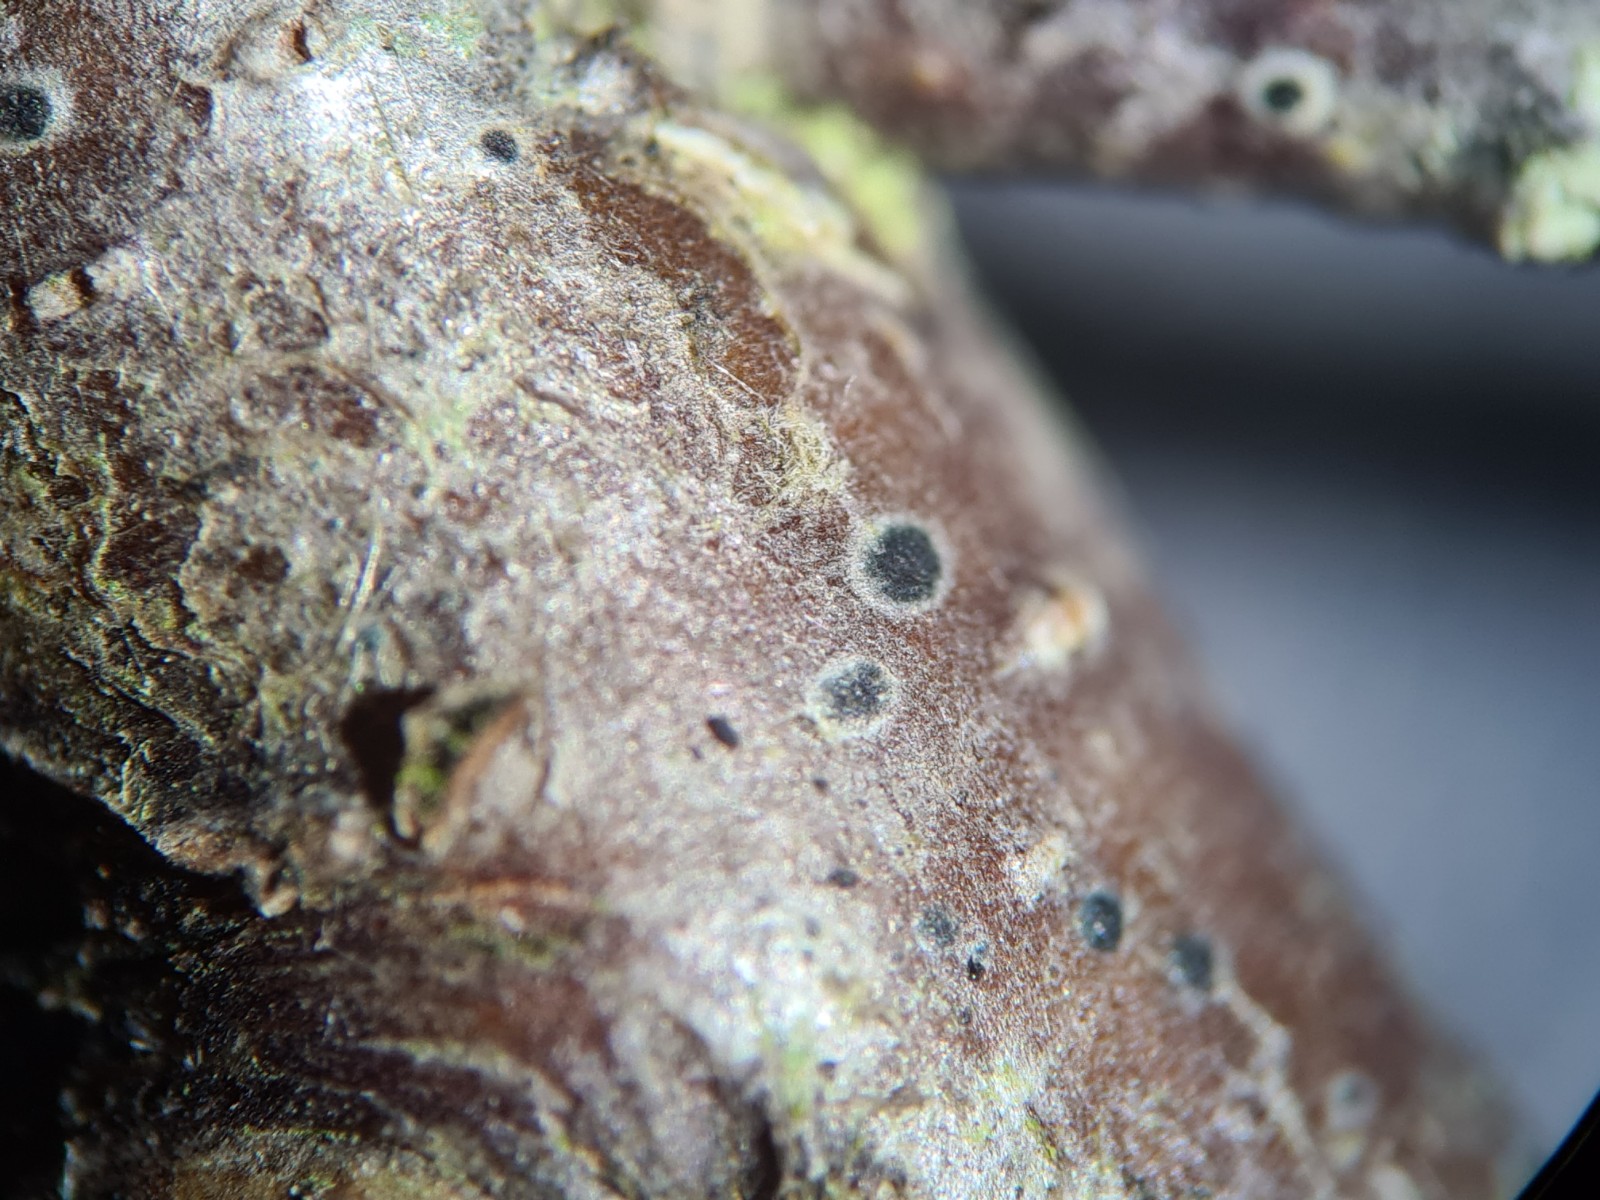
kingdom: Fungi
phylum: Ascomycota
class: Dothideomycetes
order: Dothideales
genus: Mycoglaena
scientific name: Mycoglaena myricae
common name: liden porsprik
